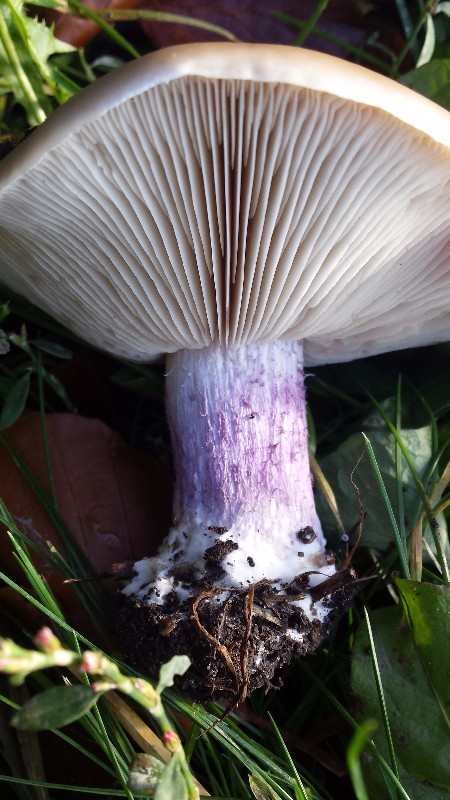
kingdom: Fungi
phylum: Basidiomycota
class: Agaricomycetes
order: Agaricales
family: Tricholomataceae
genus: Lepista
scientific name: Lepista personata
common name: bleg hekseringshat
